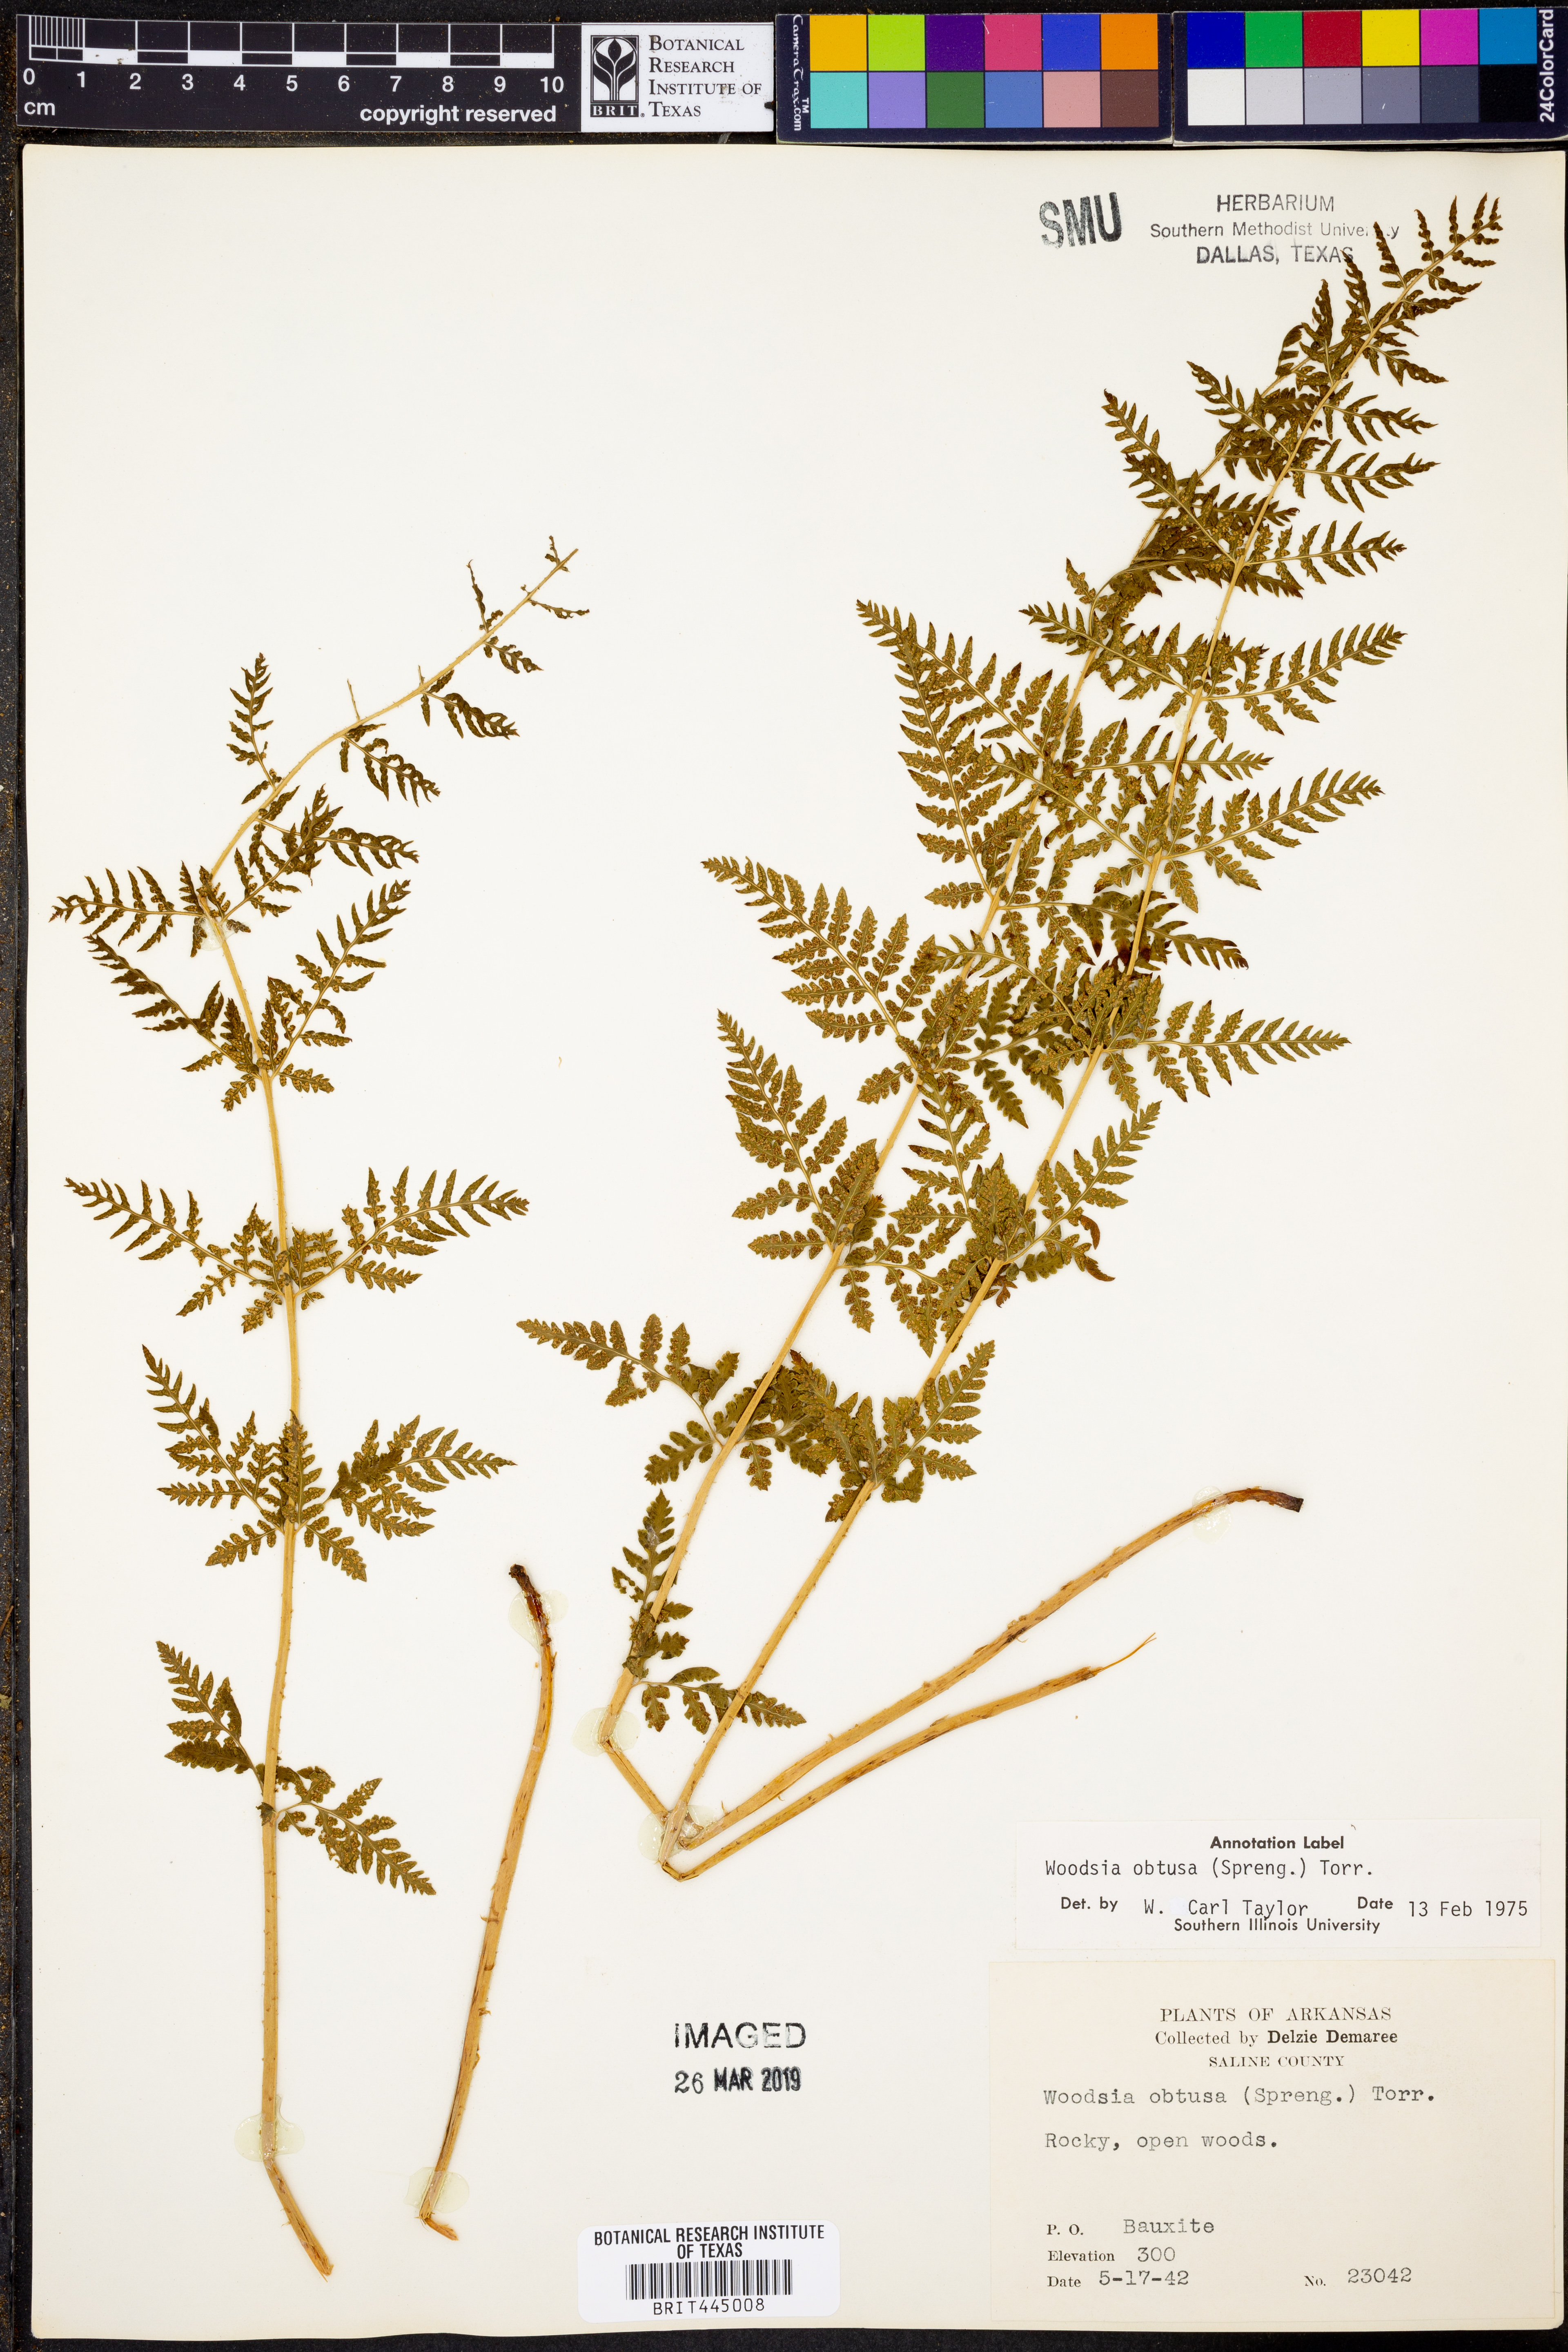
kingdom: Plantae
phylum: Tracheophyta
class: Polypodiopsida
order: Polypodiales
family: Woodsiaceae
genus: Physematium
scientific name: Physematium obtusum
